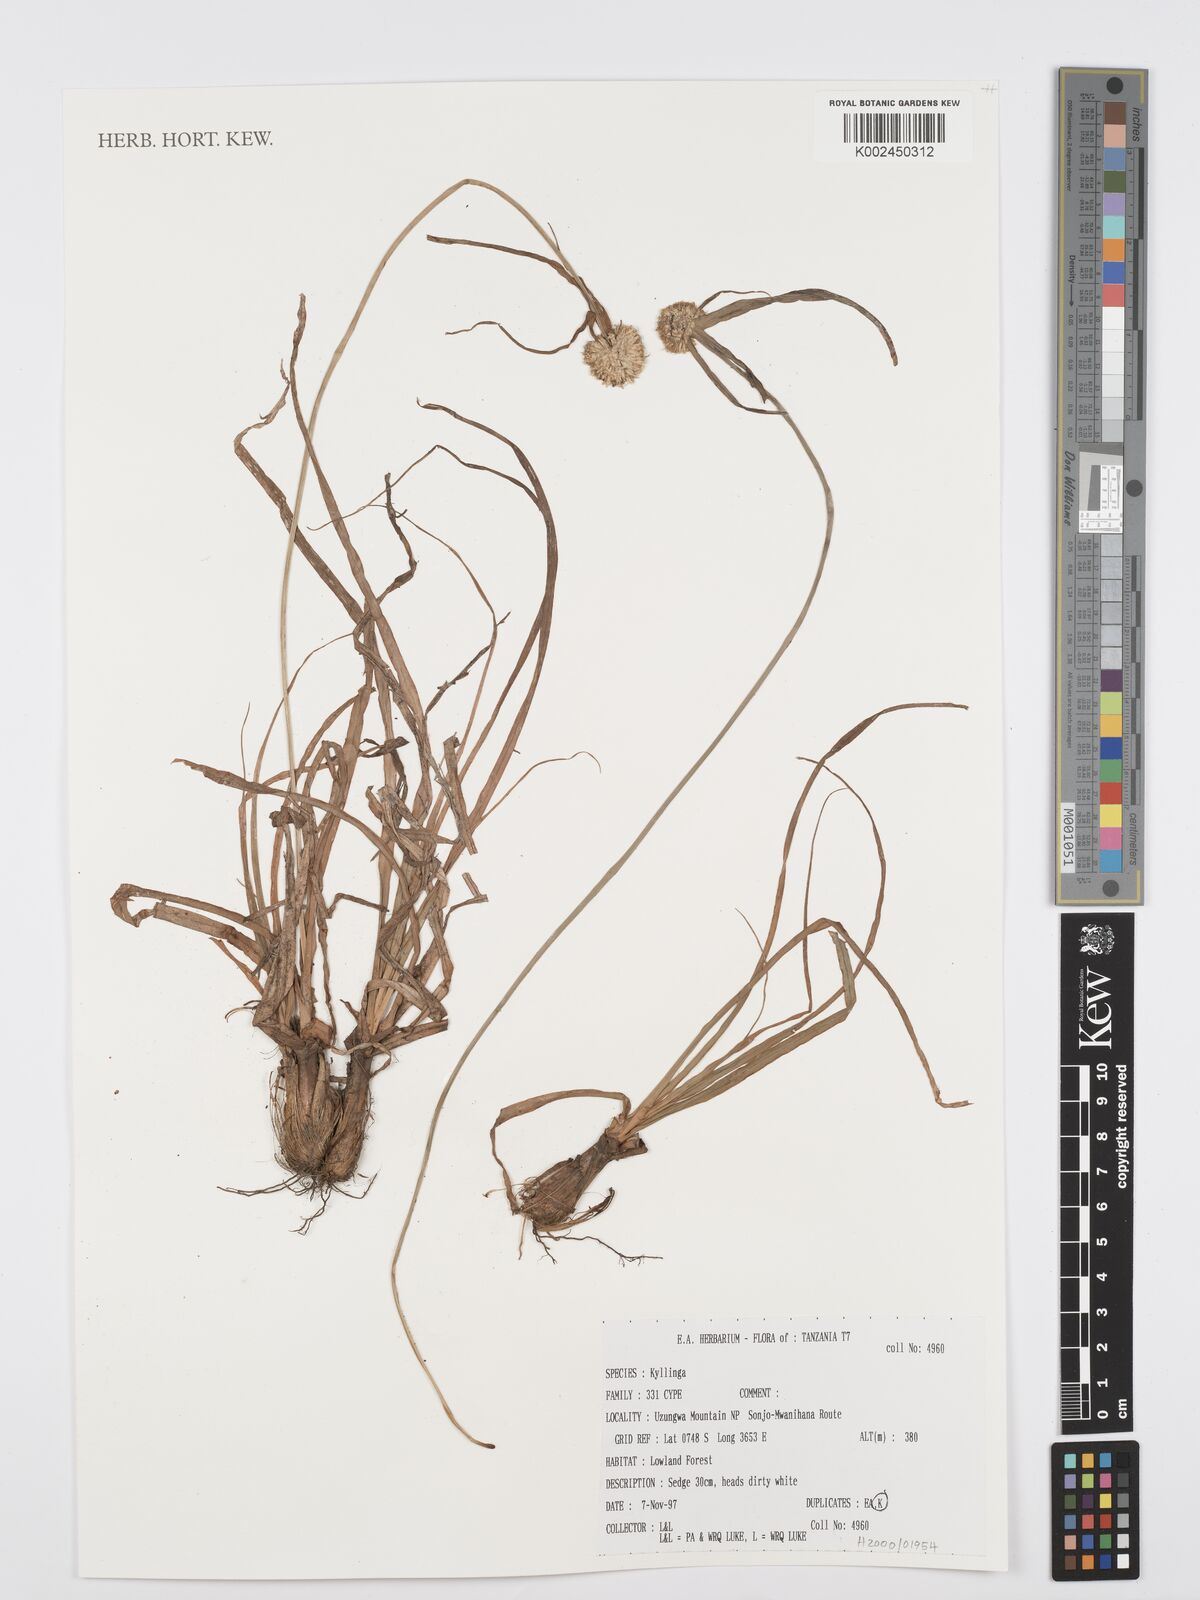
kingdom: Plantae
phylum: Tracheophyta
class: Liliopsida
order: Poales
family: Cyperaceae
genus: Cyperus
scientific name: Cyperus
